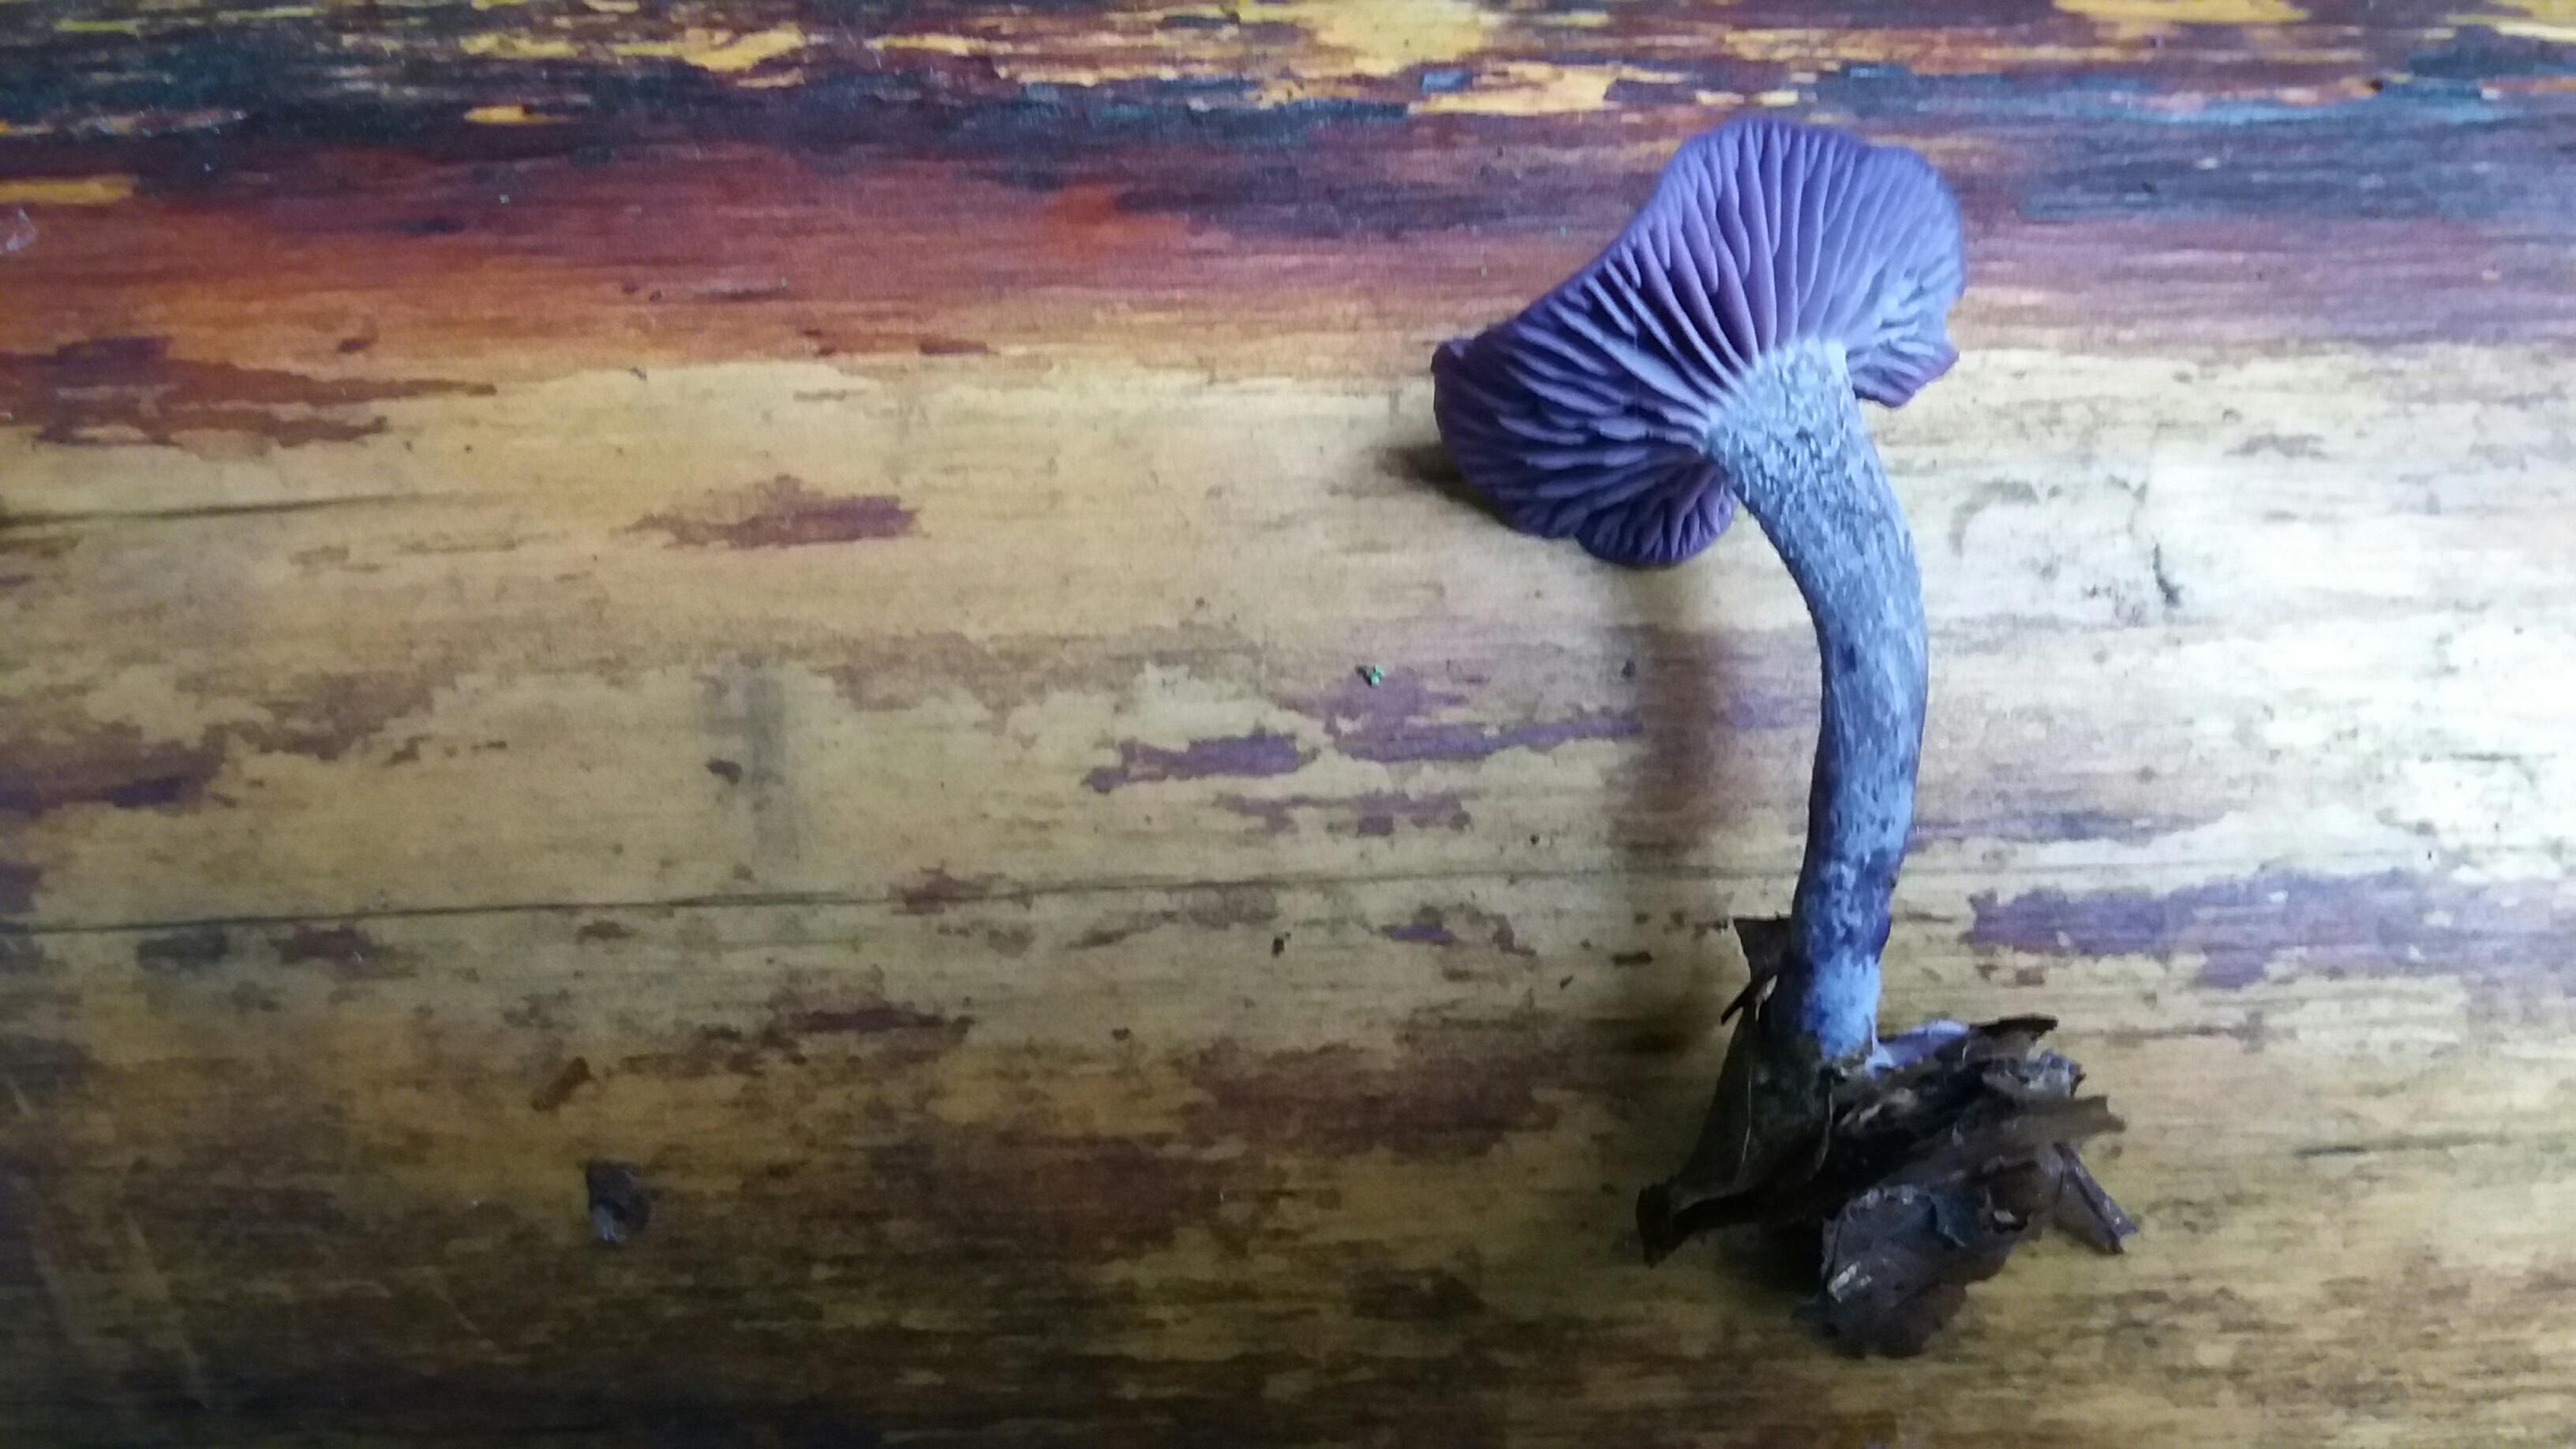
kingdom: Fungi
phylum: Basidiomycota
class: Agaricomycetes
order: Agaricales
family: Hydnangiaceae
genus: Laccaria
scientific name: Laccaria amethystina
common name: violet ametysthat
